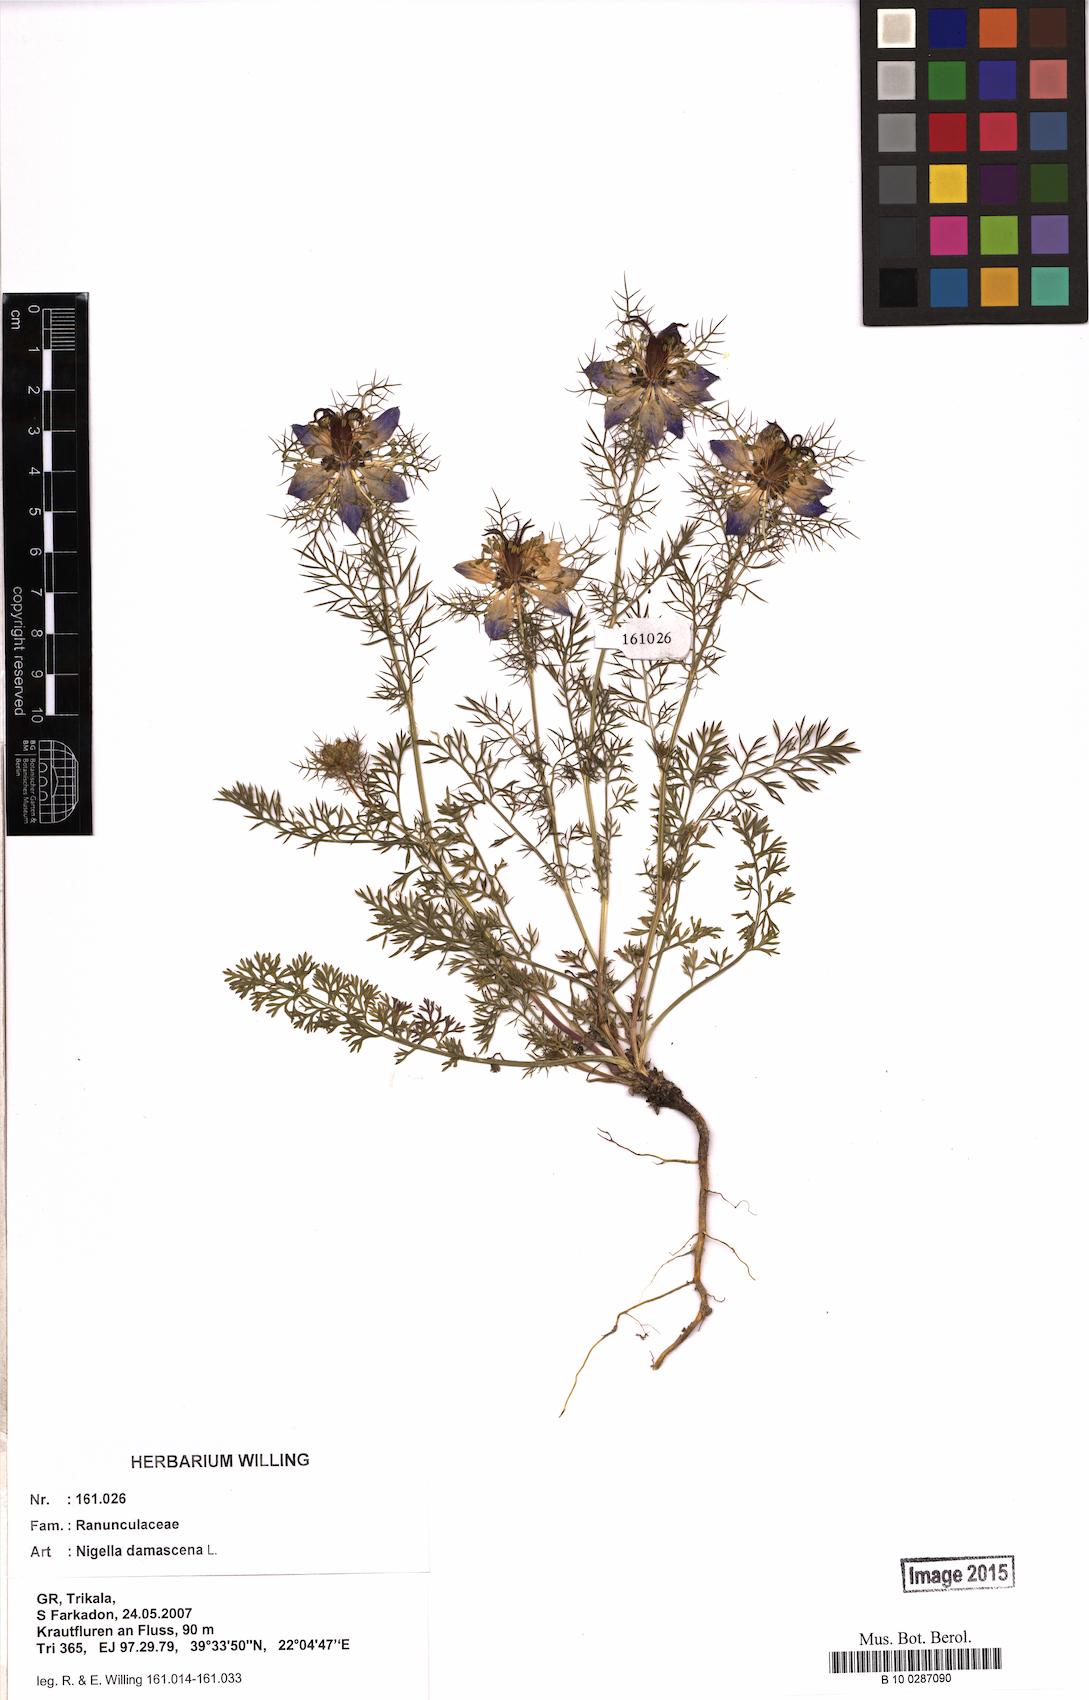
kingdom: Plantae
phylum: Tracheophyta
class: Magnoliopsida
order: Ranunculales
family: Ranunculaceae
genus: Nigella
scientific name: Nigella damascena
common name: Love-in-a-mist
